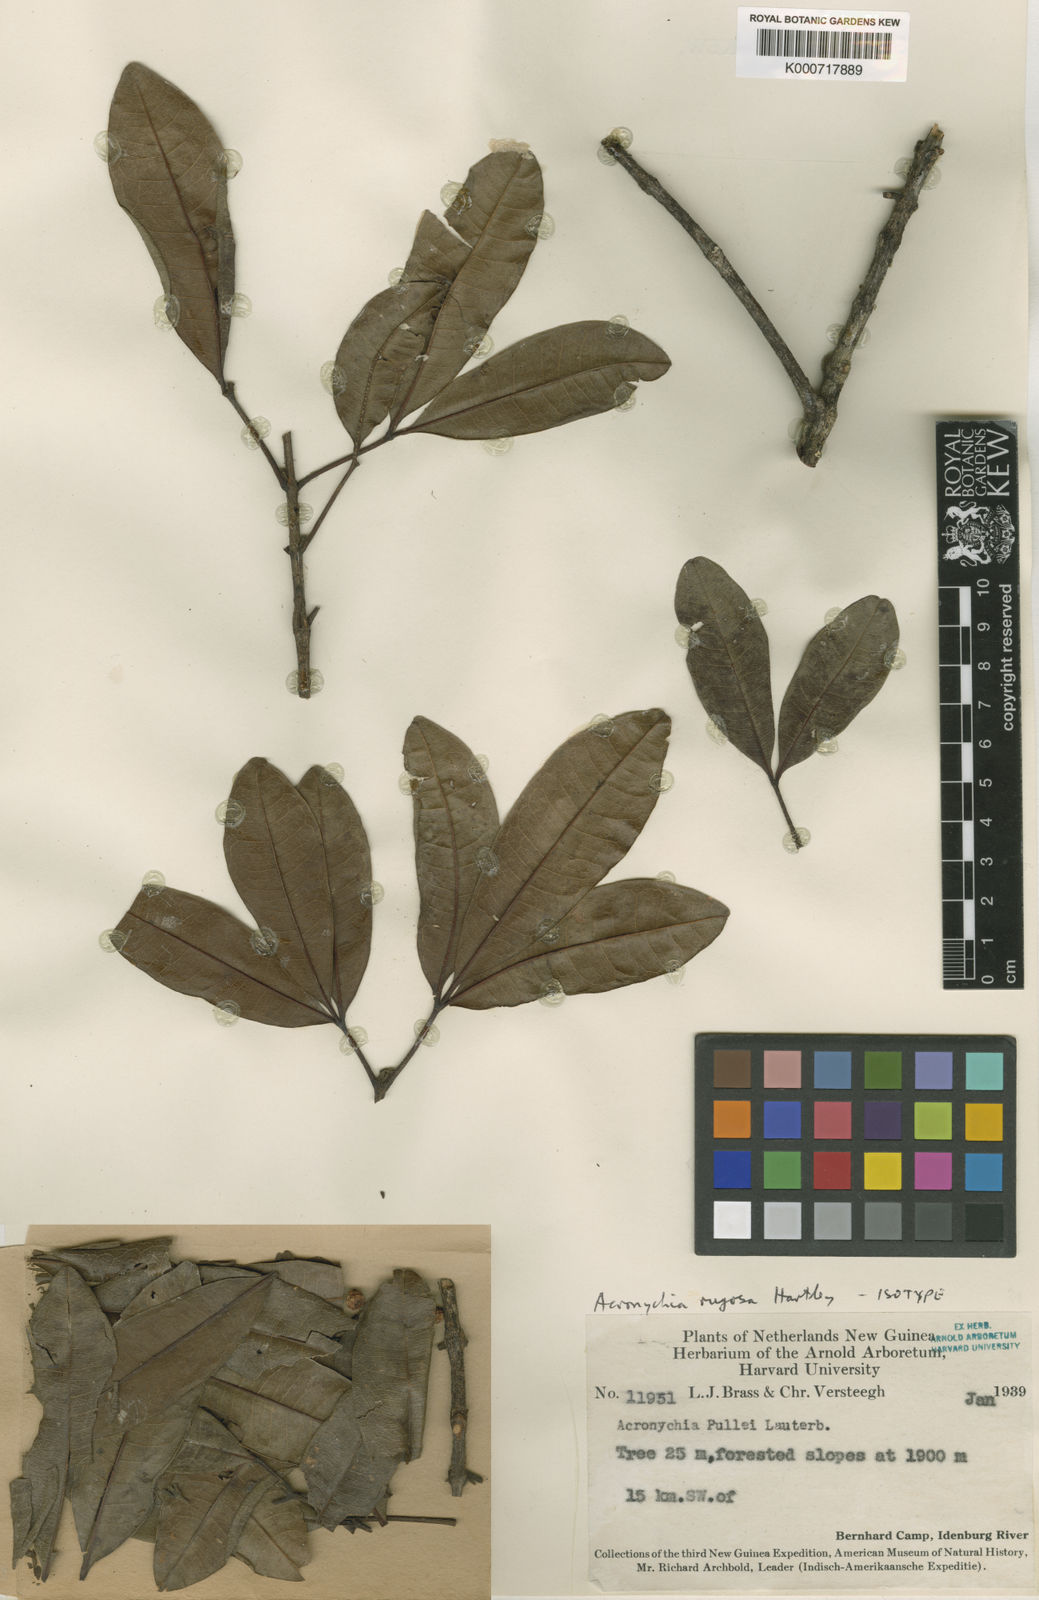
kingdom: Plantae
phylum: Tracheophyta
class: Magnoliopsida
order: Sapindales
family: Rutaceae
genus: Acronychia
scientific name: Acronychia rugosa
